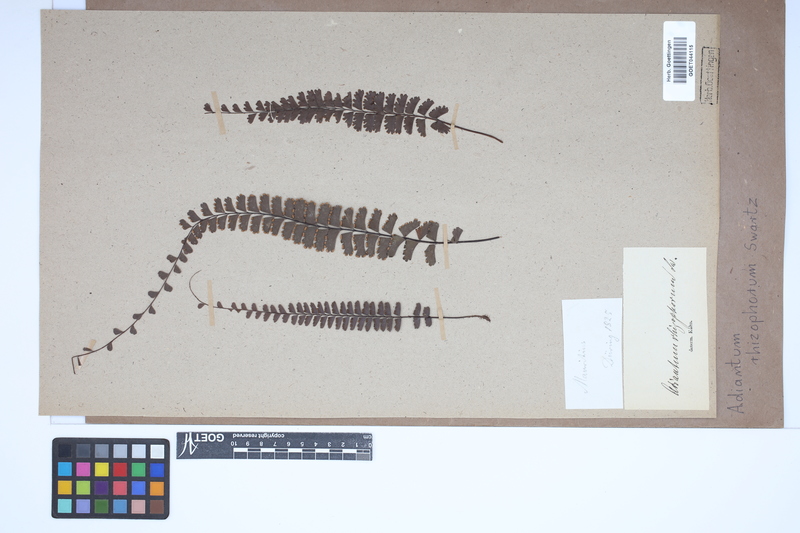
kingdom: Plantae
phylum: Tracheophyta
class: Polypodiopsida
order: Polypodiales
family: Pteridaceae
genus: Adiantum
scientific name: Adiantum rhizophorum
